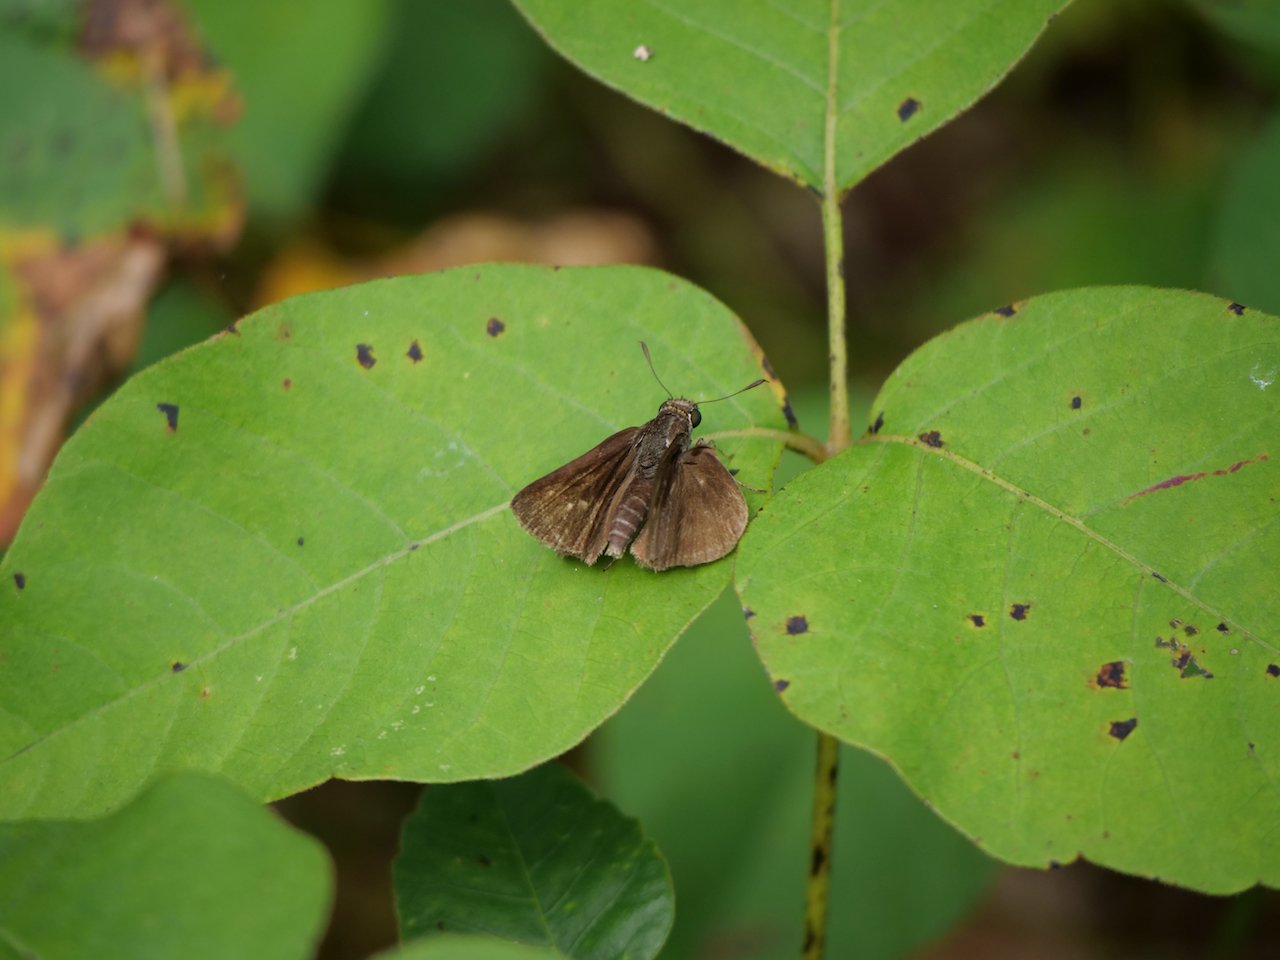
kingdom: Animalia
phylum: Arthropoda
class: Insecta
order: Lepidoptera
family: Hesperiidae
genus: Euphyes
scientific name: Euphyes vestris
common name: Dun Skipper
